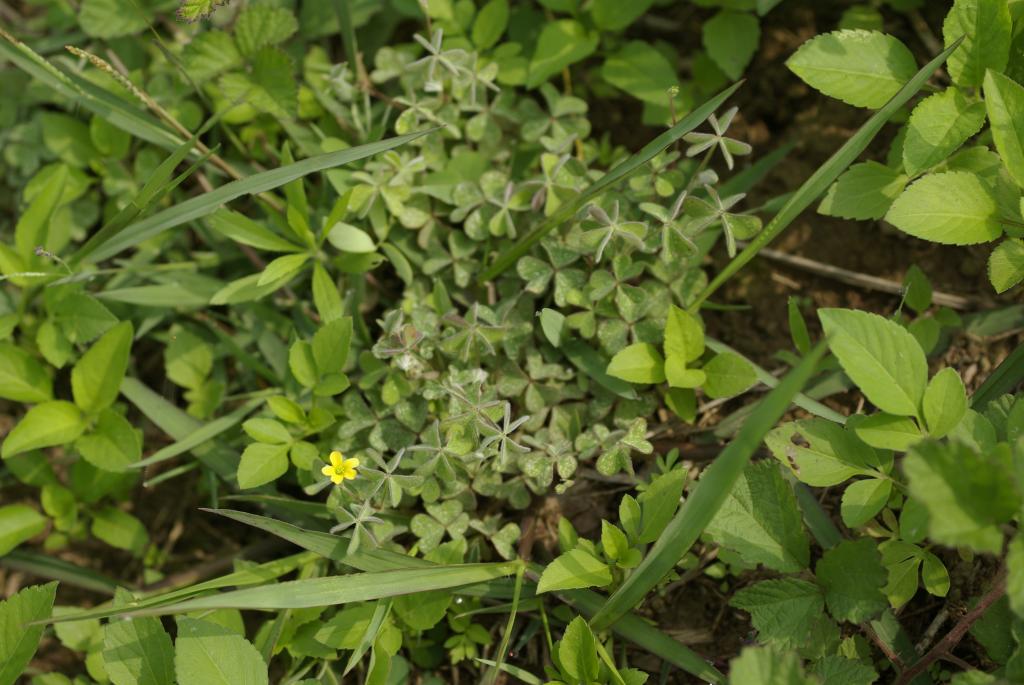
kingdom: Plantae
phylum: Tracheophyta
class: Magnoliopsida
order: Oxalidales
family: Oxalidaceae
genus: Oxalis
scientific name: Oxalis corniculata
